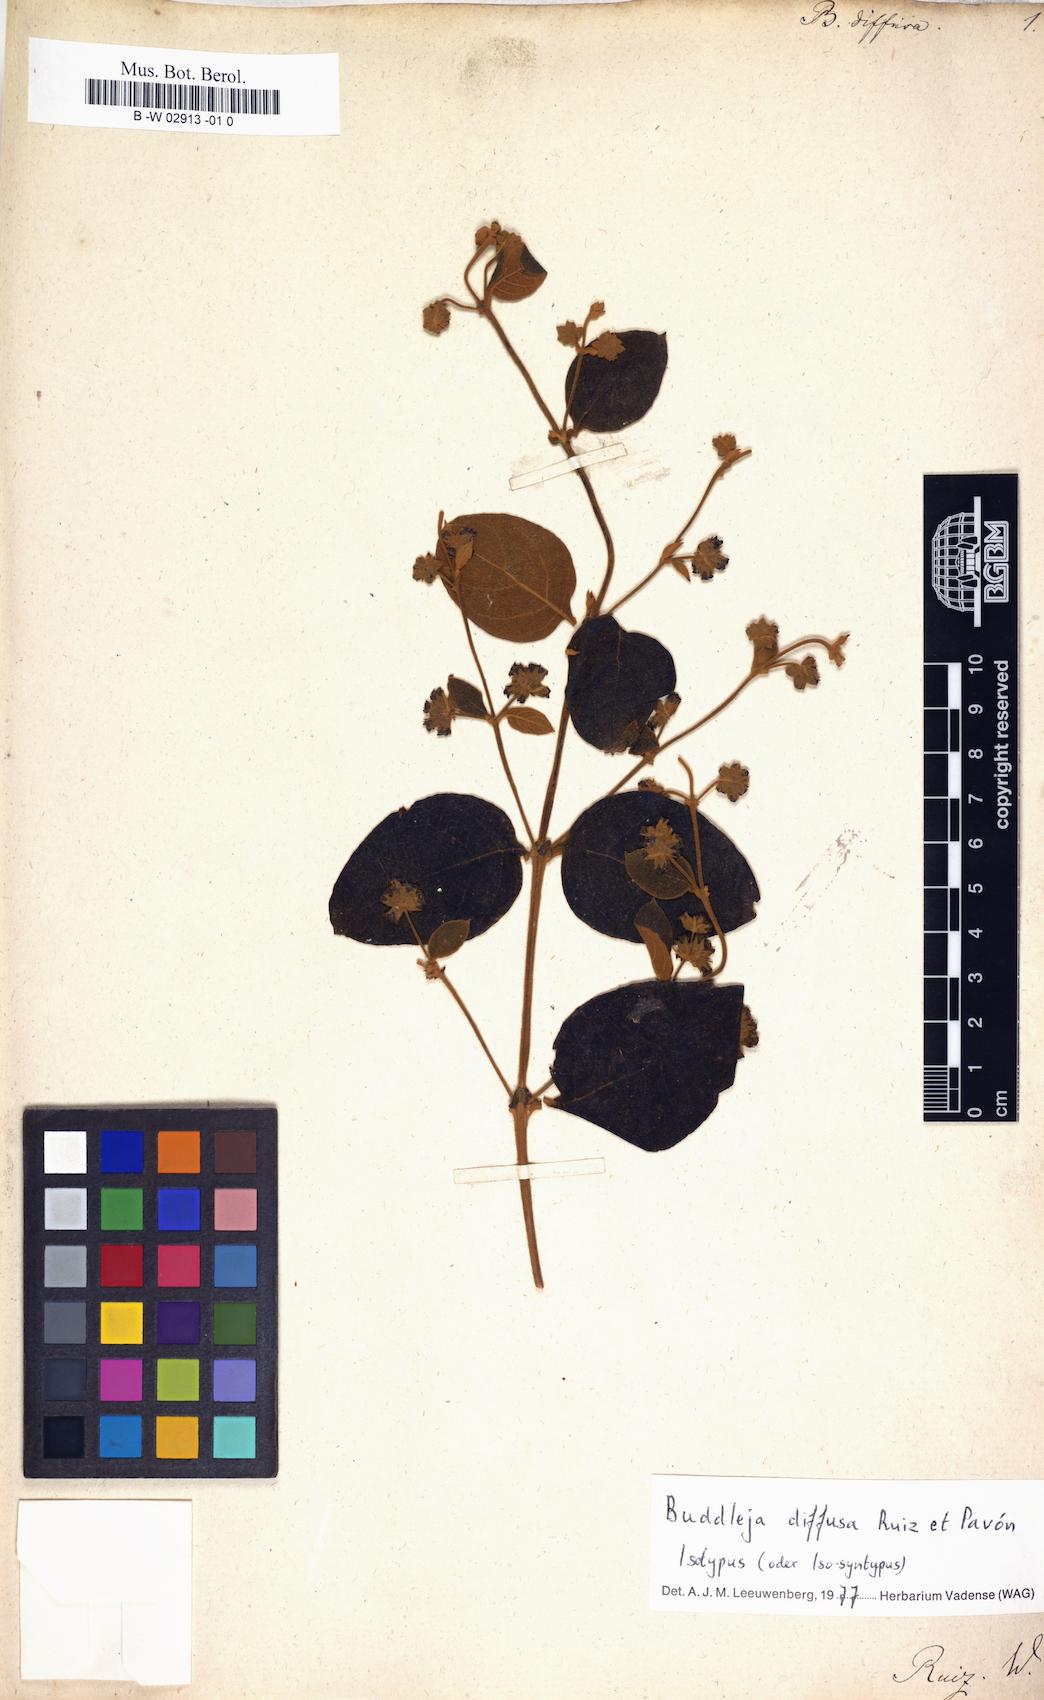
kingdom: Plantae
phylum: Tracheophyta
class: Magnoliopsida
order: Lamiales
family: Scrophulariaceae
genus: Buddleja
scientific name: Buddleja diffusa
